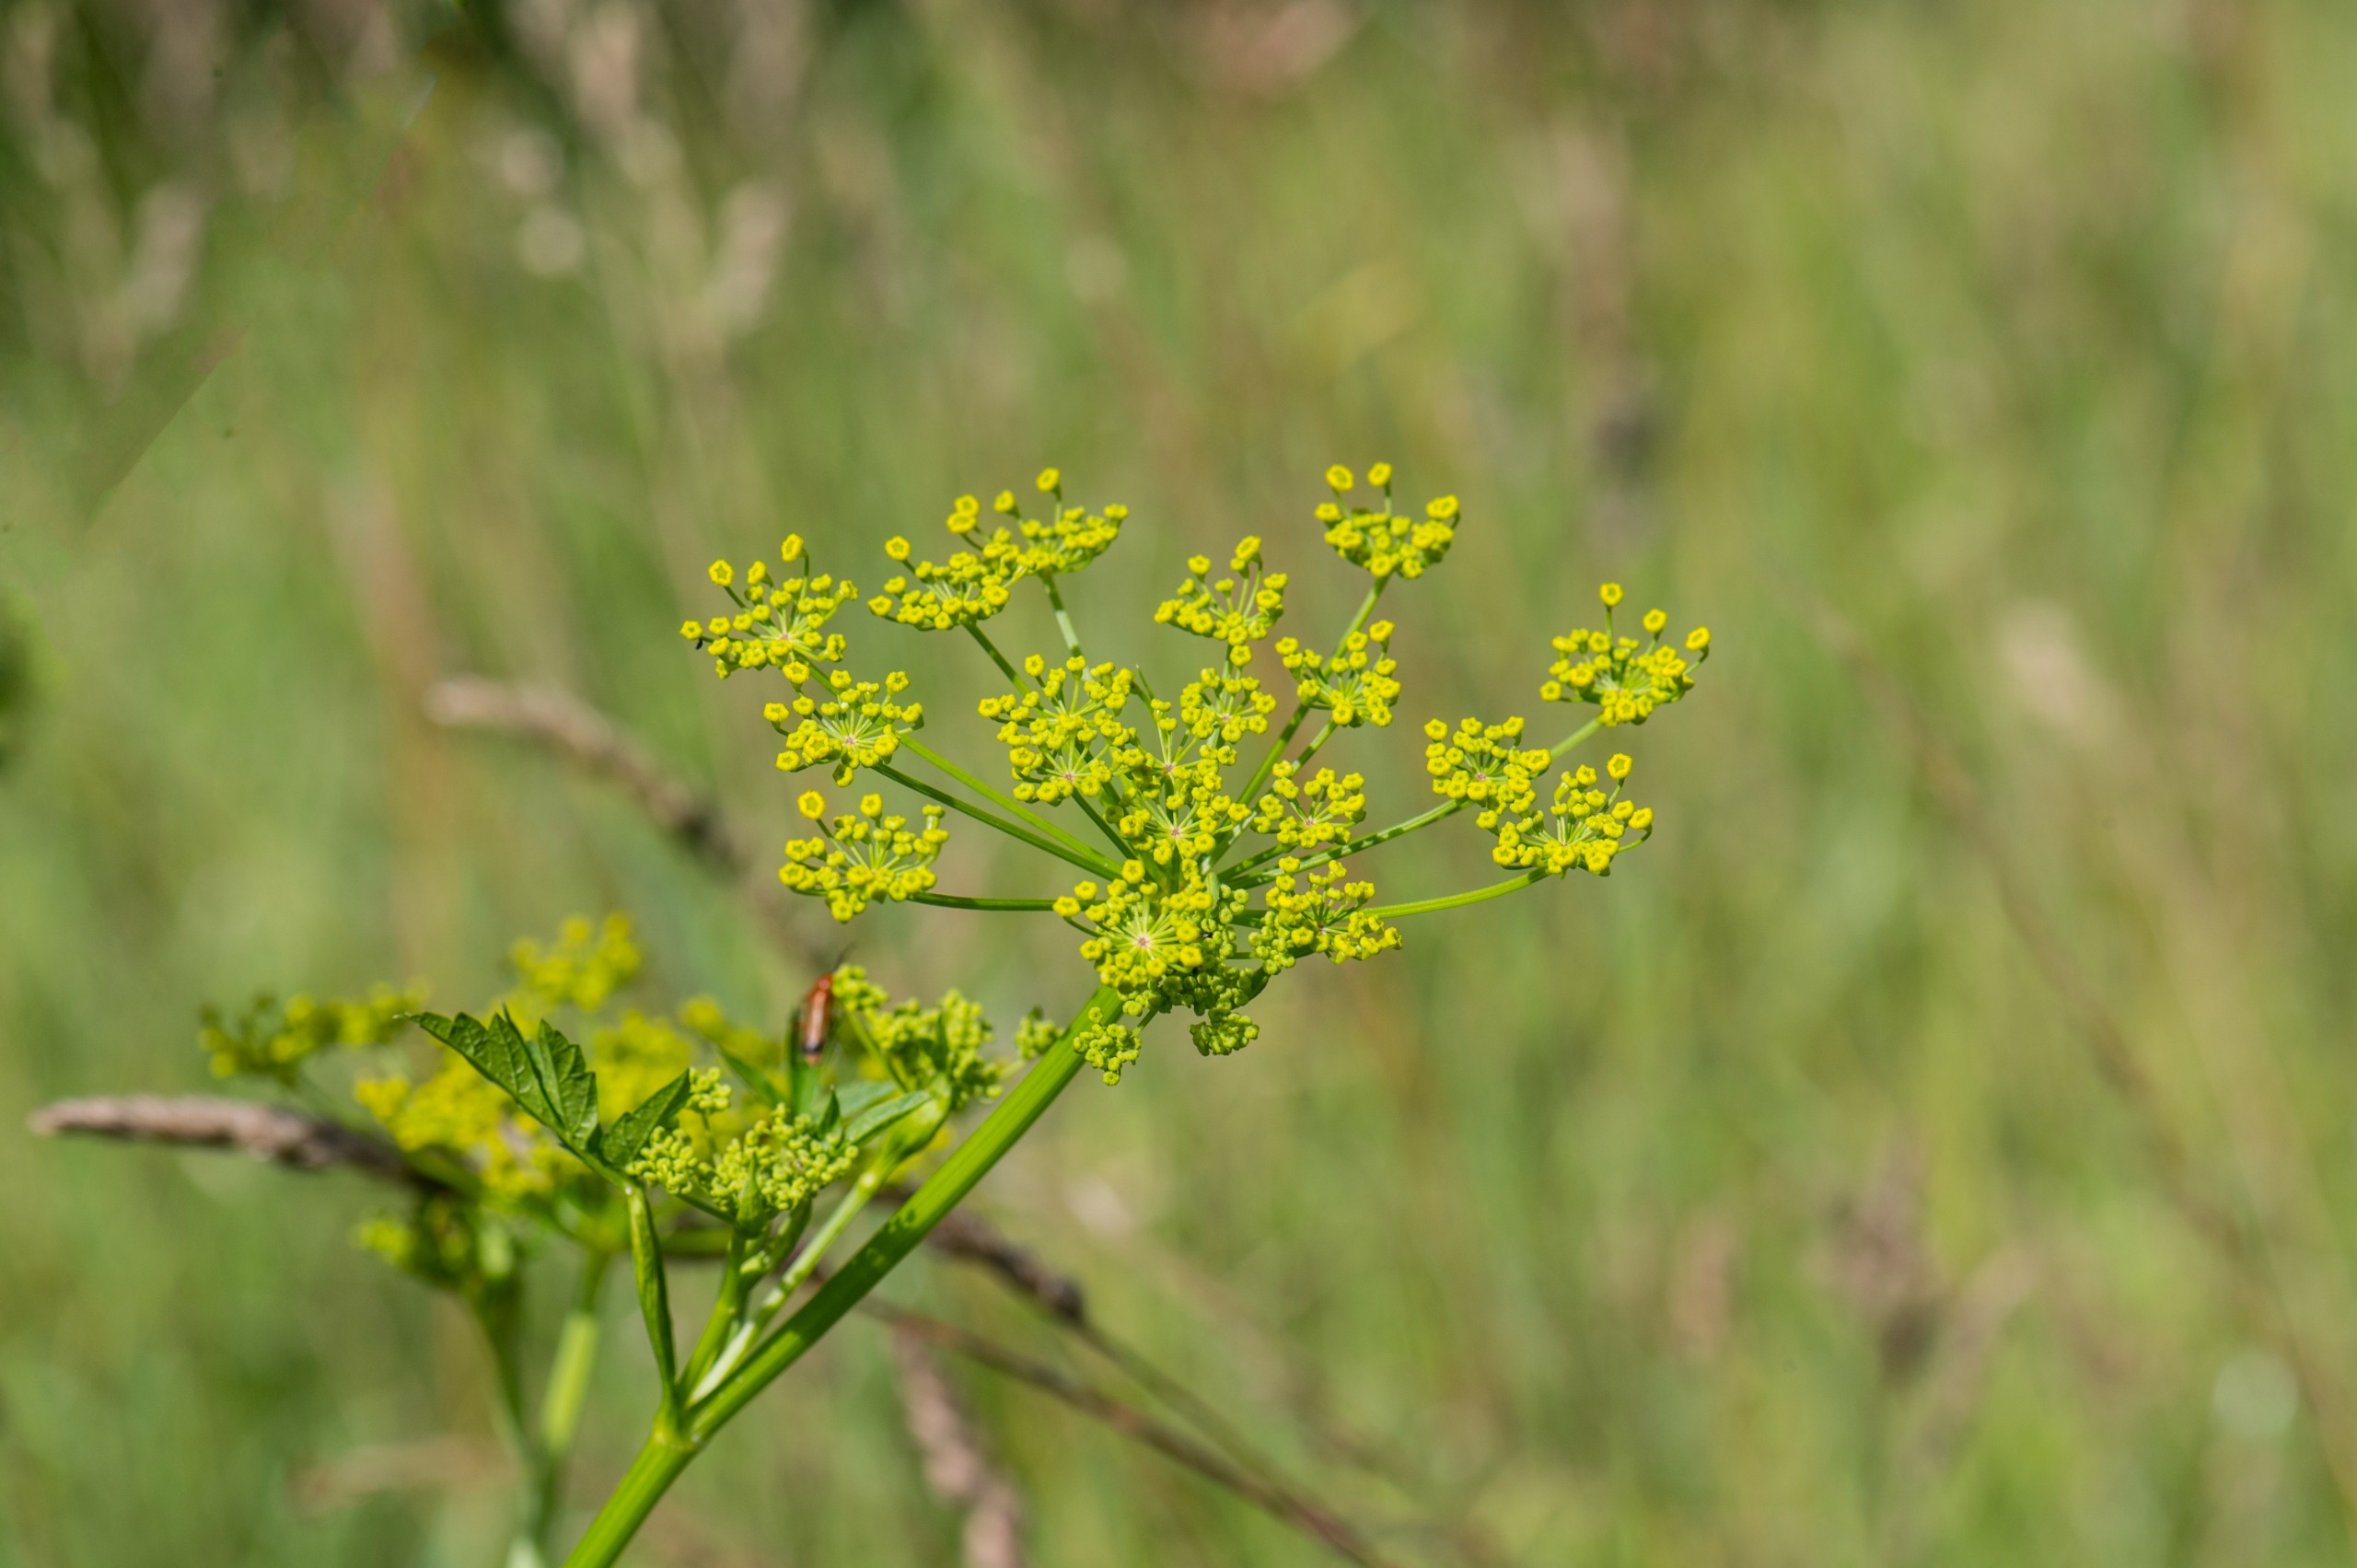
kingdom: Plantae
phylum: Tracheophyta
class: Magnoliopsida
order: Apiales
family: Apiaceae
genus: Pastinaca
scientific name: Pastinaca sativa
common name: Pastinak
